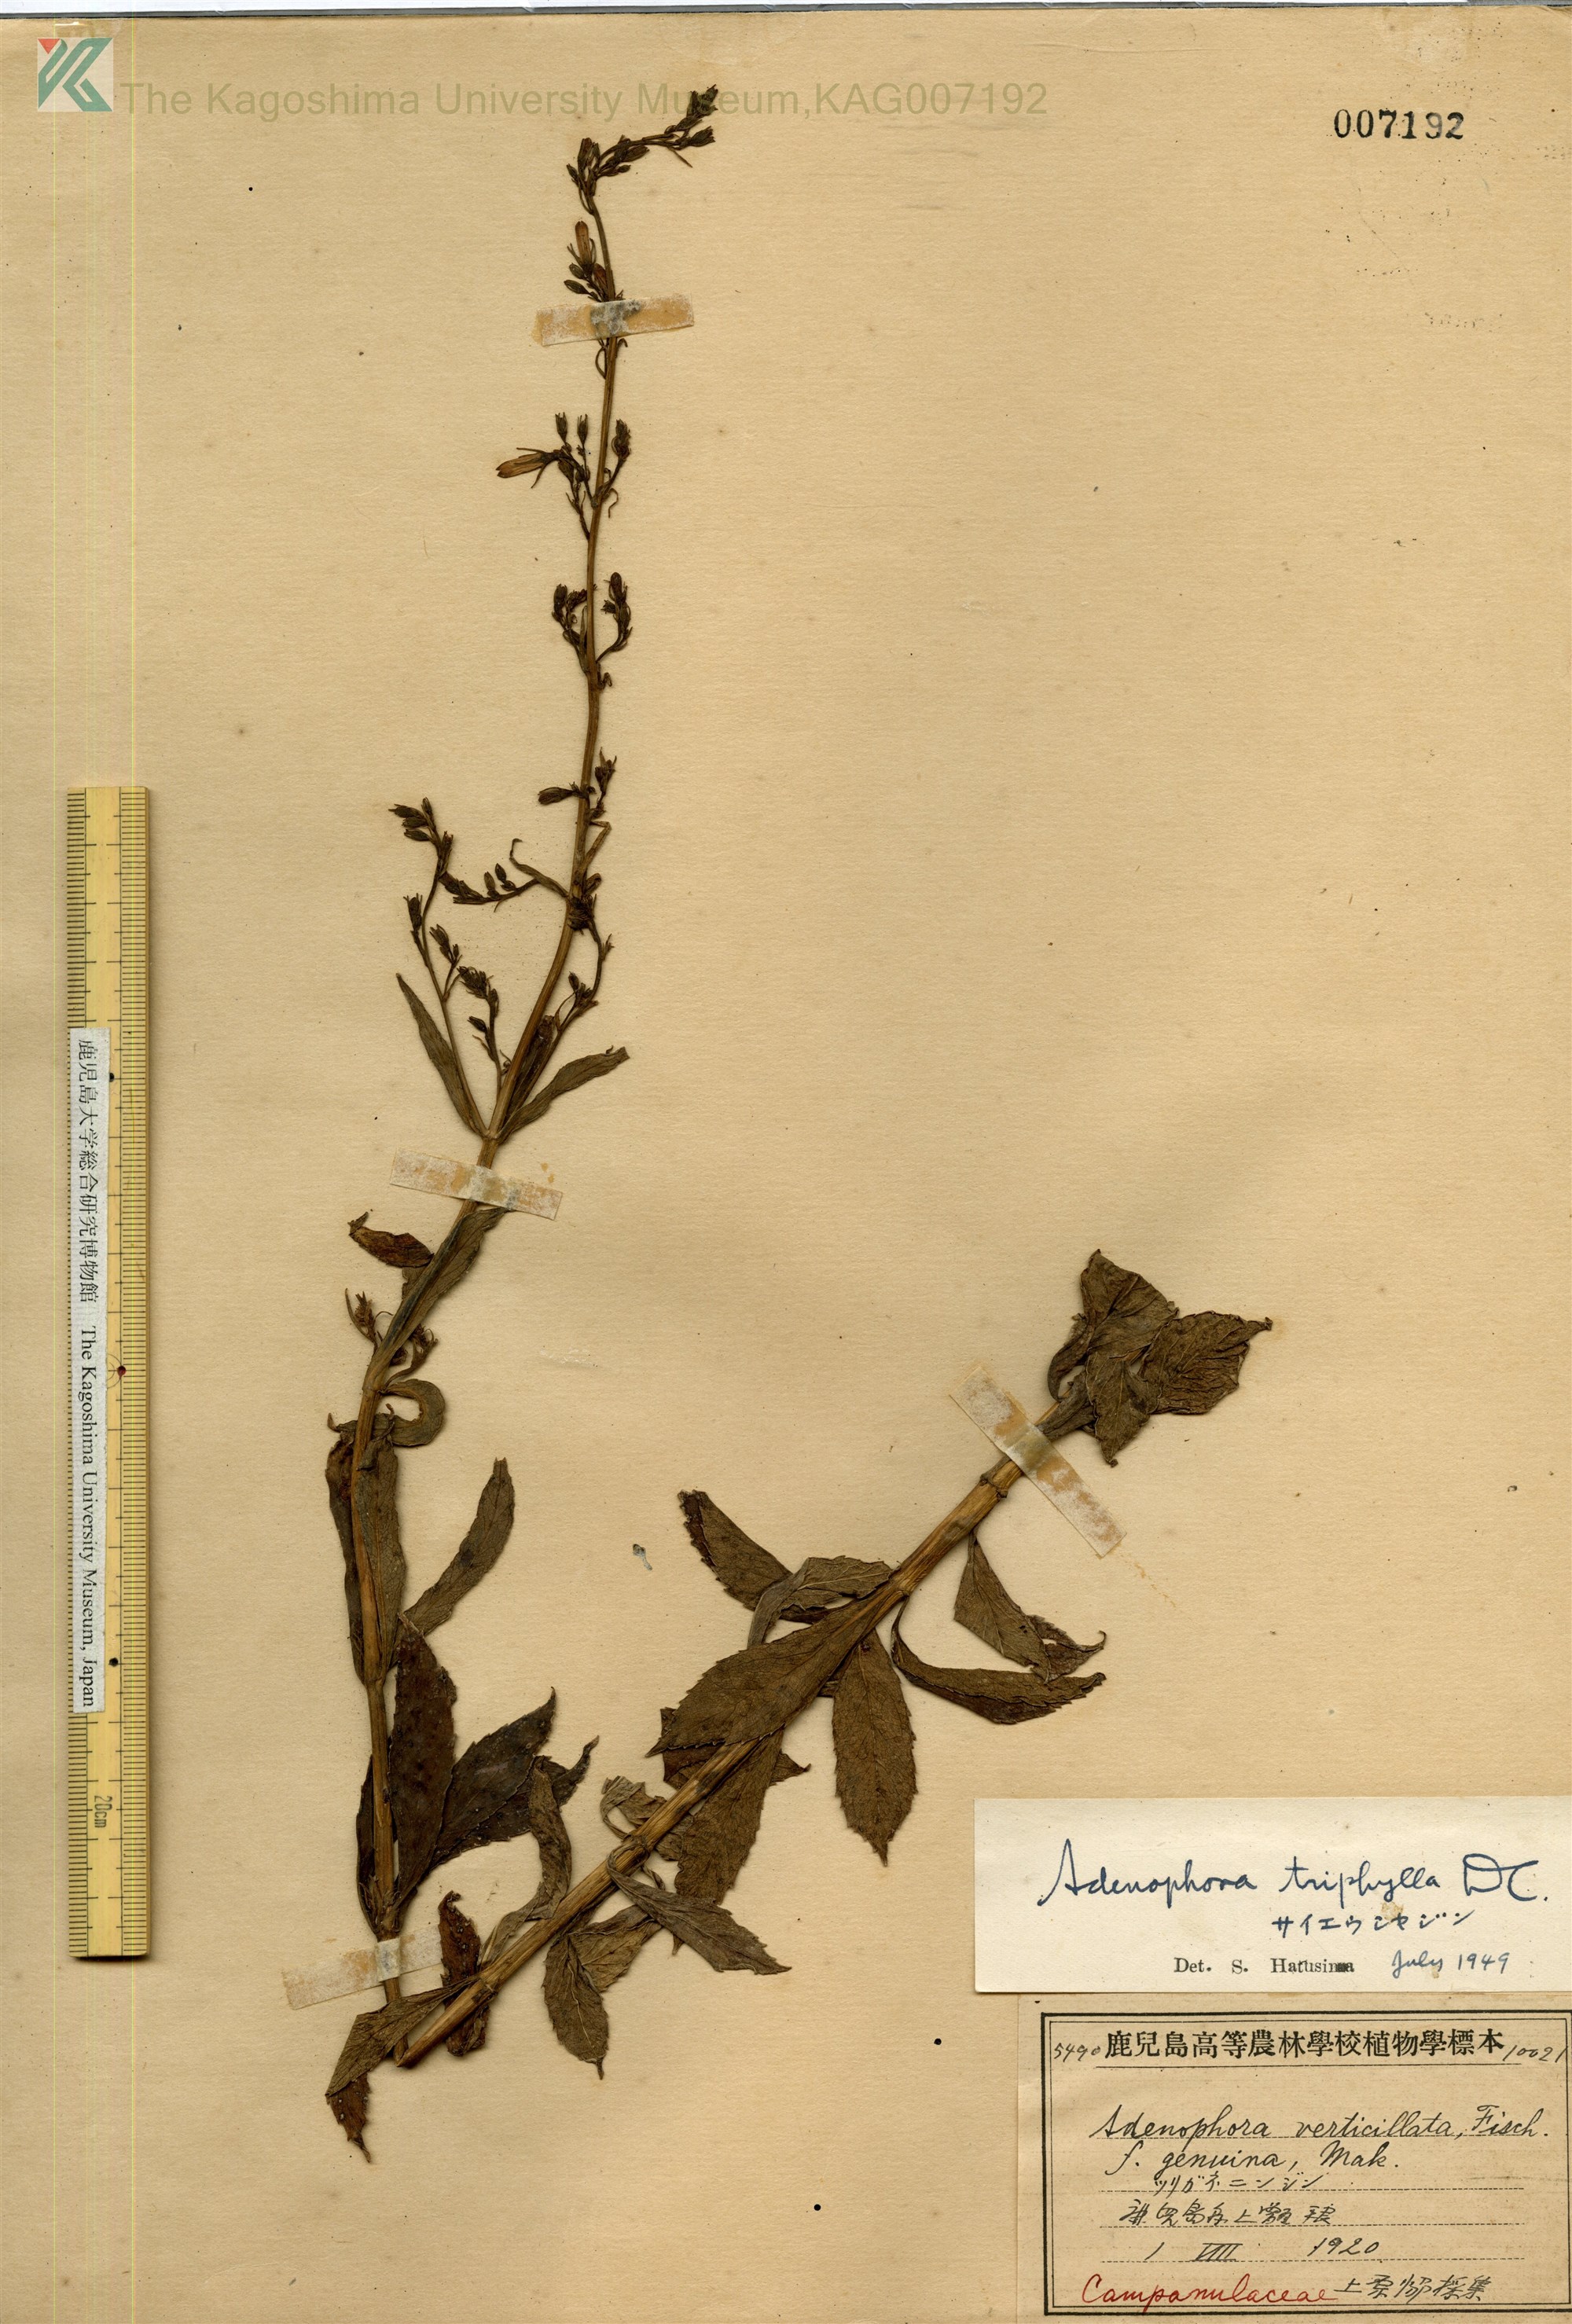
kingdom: Plantae
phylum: Tracheophyta
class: Magnoliopsida
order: Asterales
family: Campanulaceae
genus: Adenophora
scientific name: Adenophora triphylla
